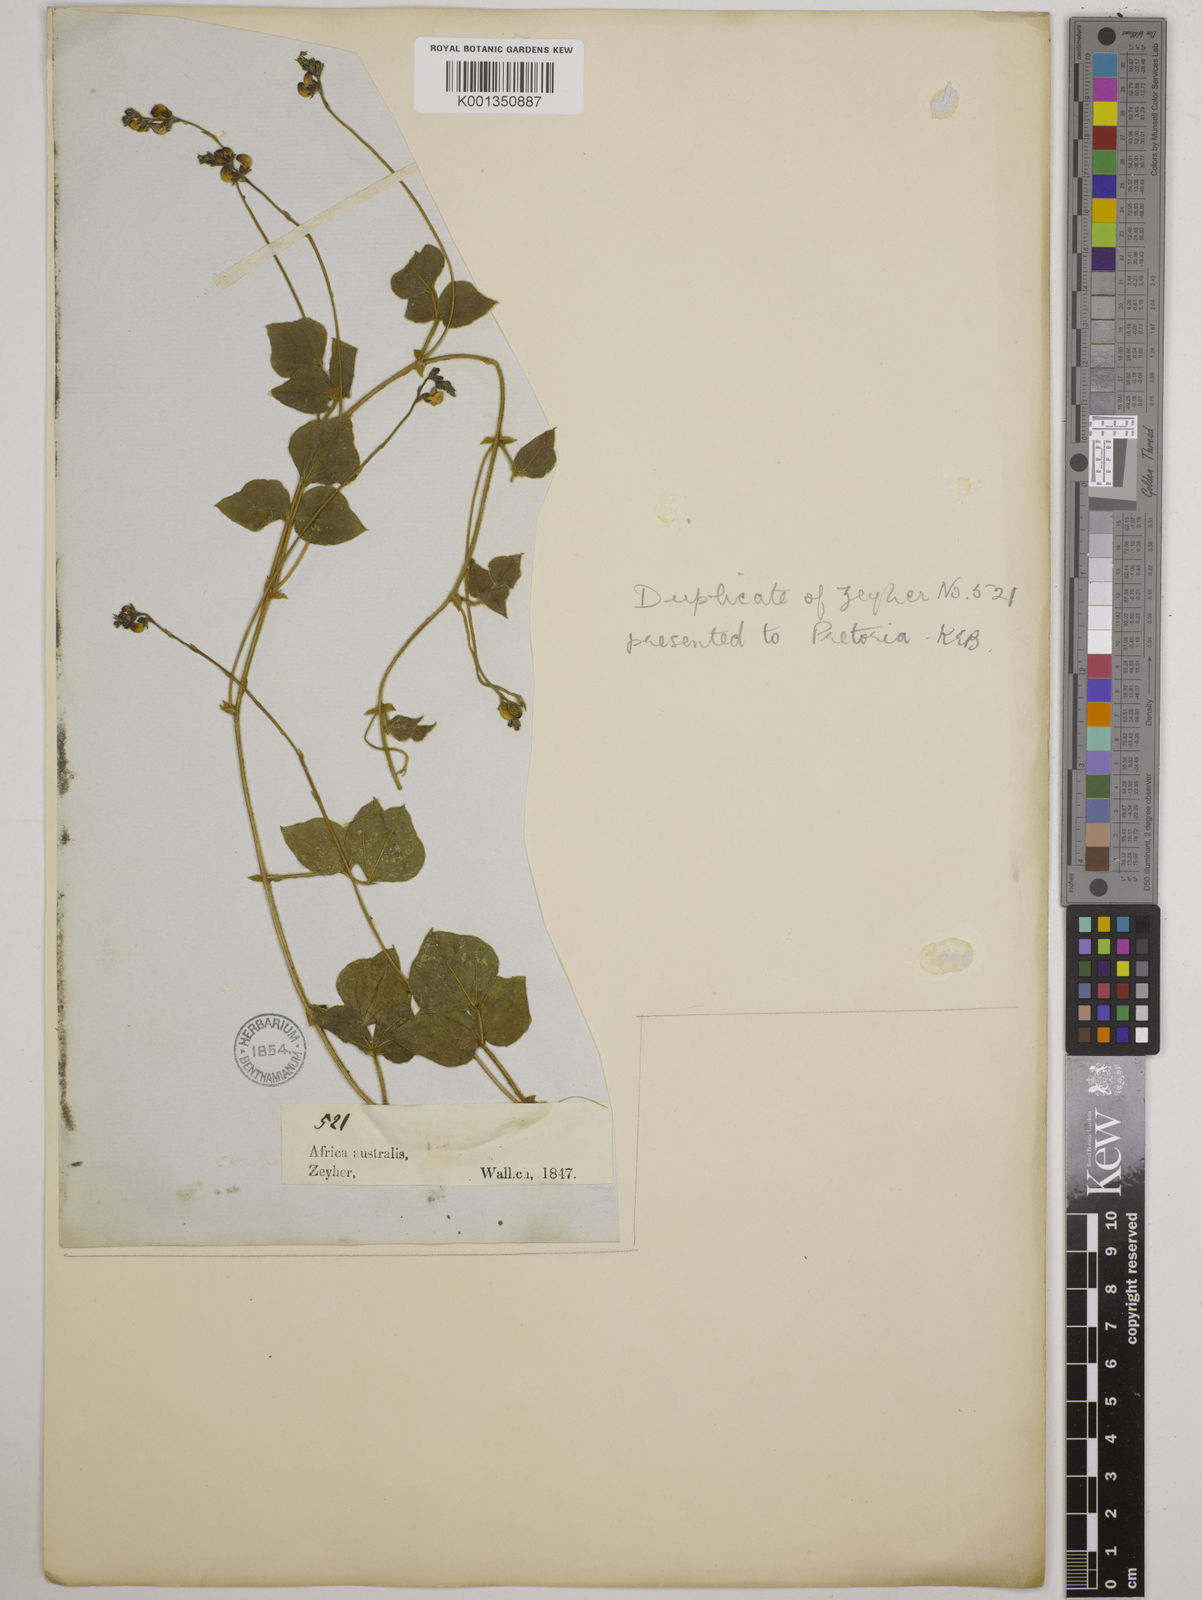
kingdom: Plantae
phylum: Tracheophyta
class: Magnoliopsida
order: Fabales
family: Fabaceae
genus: Dolichos
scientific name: Dolichos falciformis
